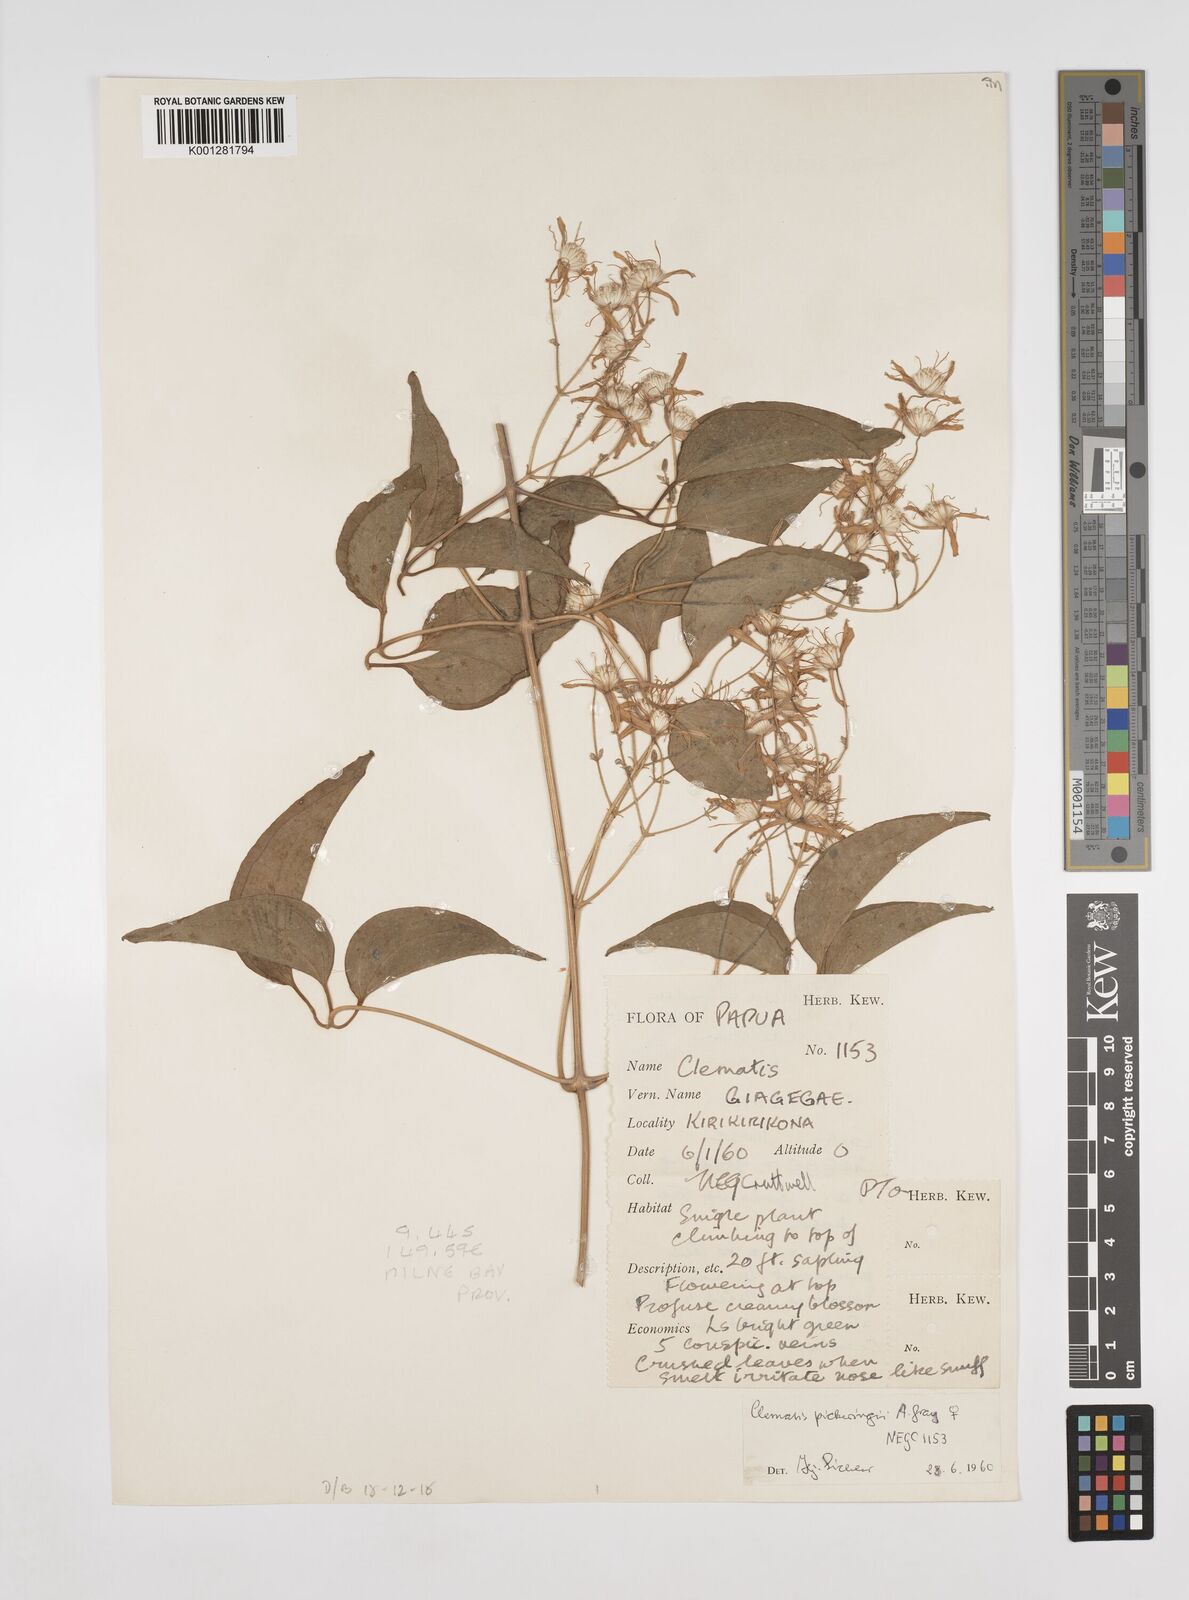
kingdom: Plantae
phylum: Tracheophyta
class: Magnoliopsida
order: Ranunculales
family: Ranunculaceae
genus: Clematis
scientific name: Clematis pickeringii
